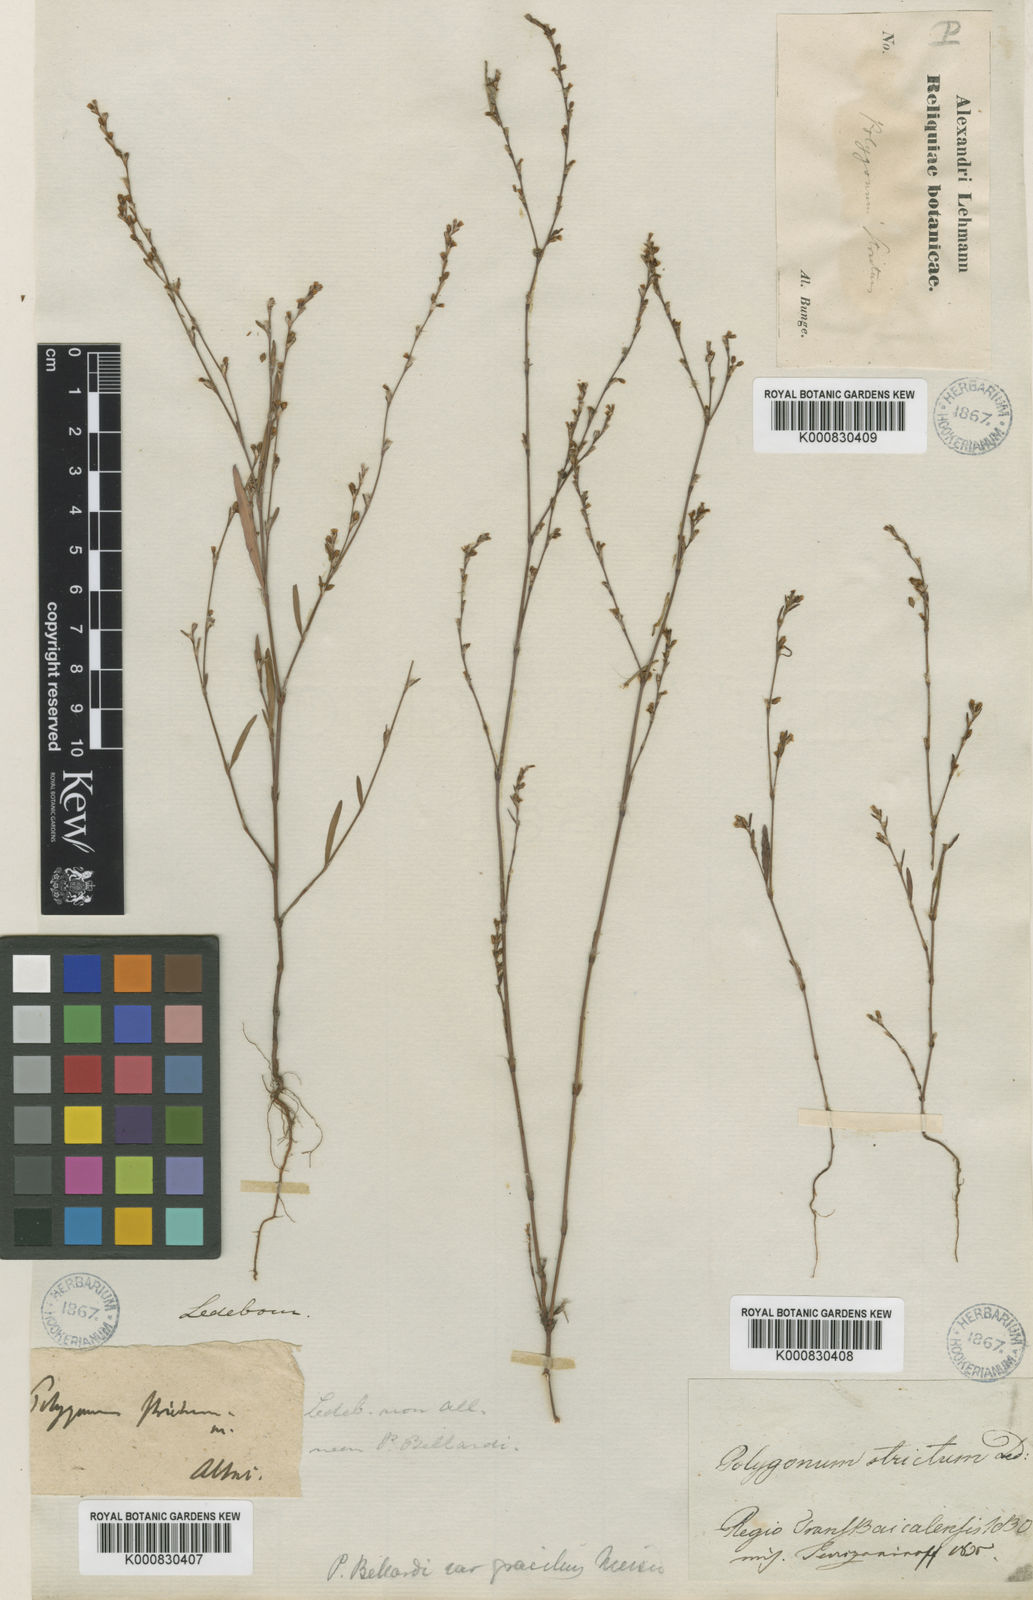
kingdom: Plantae
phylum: Tracheophyta
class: Magnoliopsida
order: Caryophyllales
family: Polygonaceae
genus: Polygonum
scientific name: Polygonum bellardii
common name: Narrowleaf knotweed
